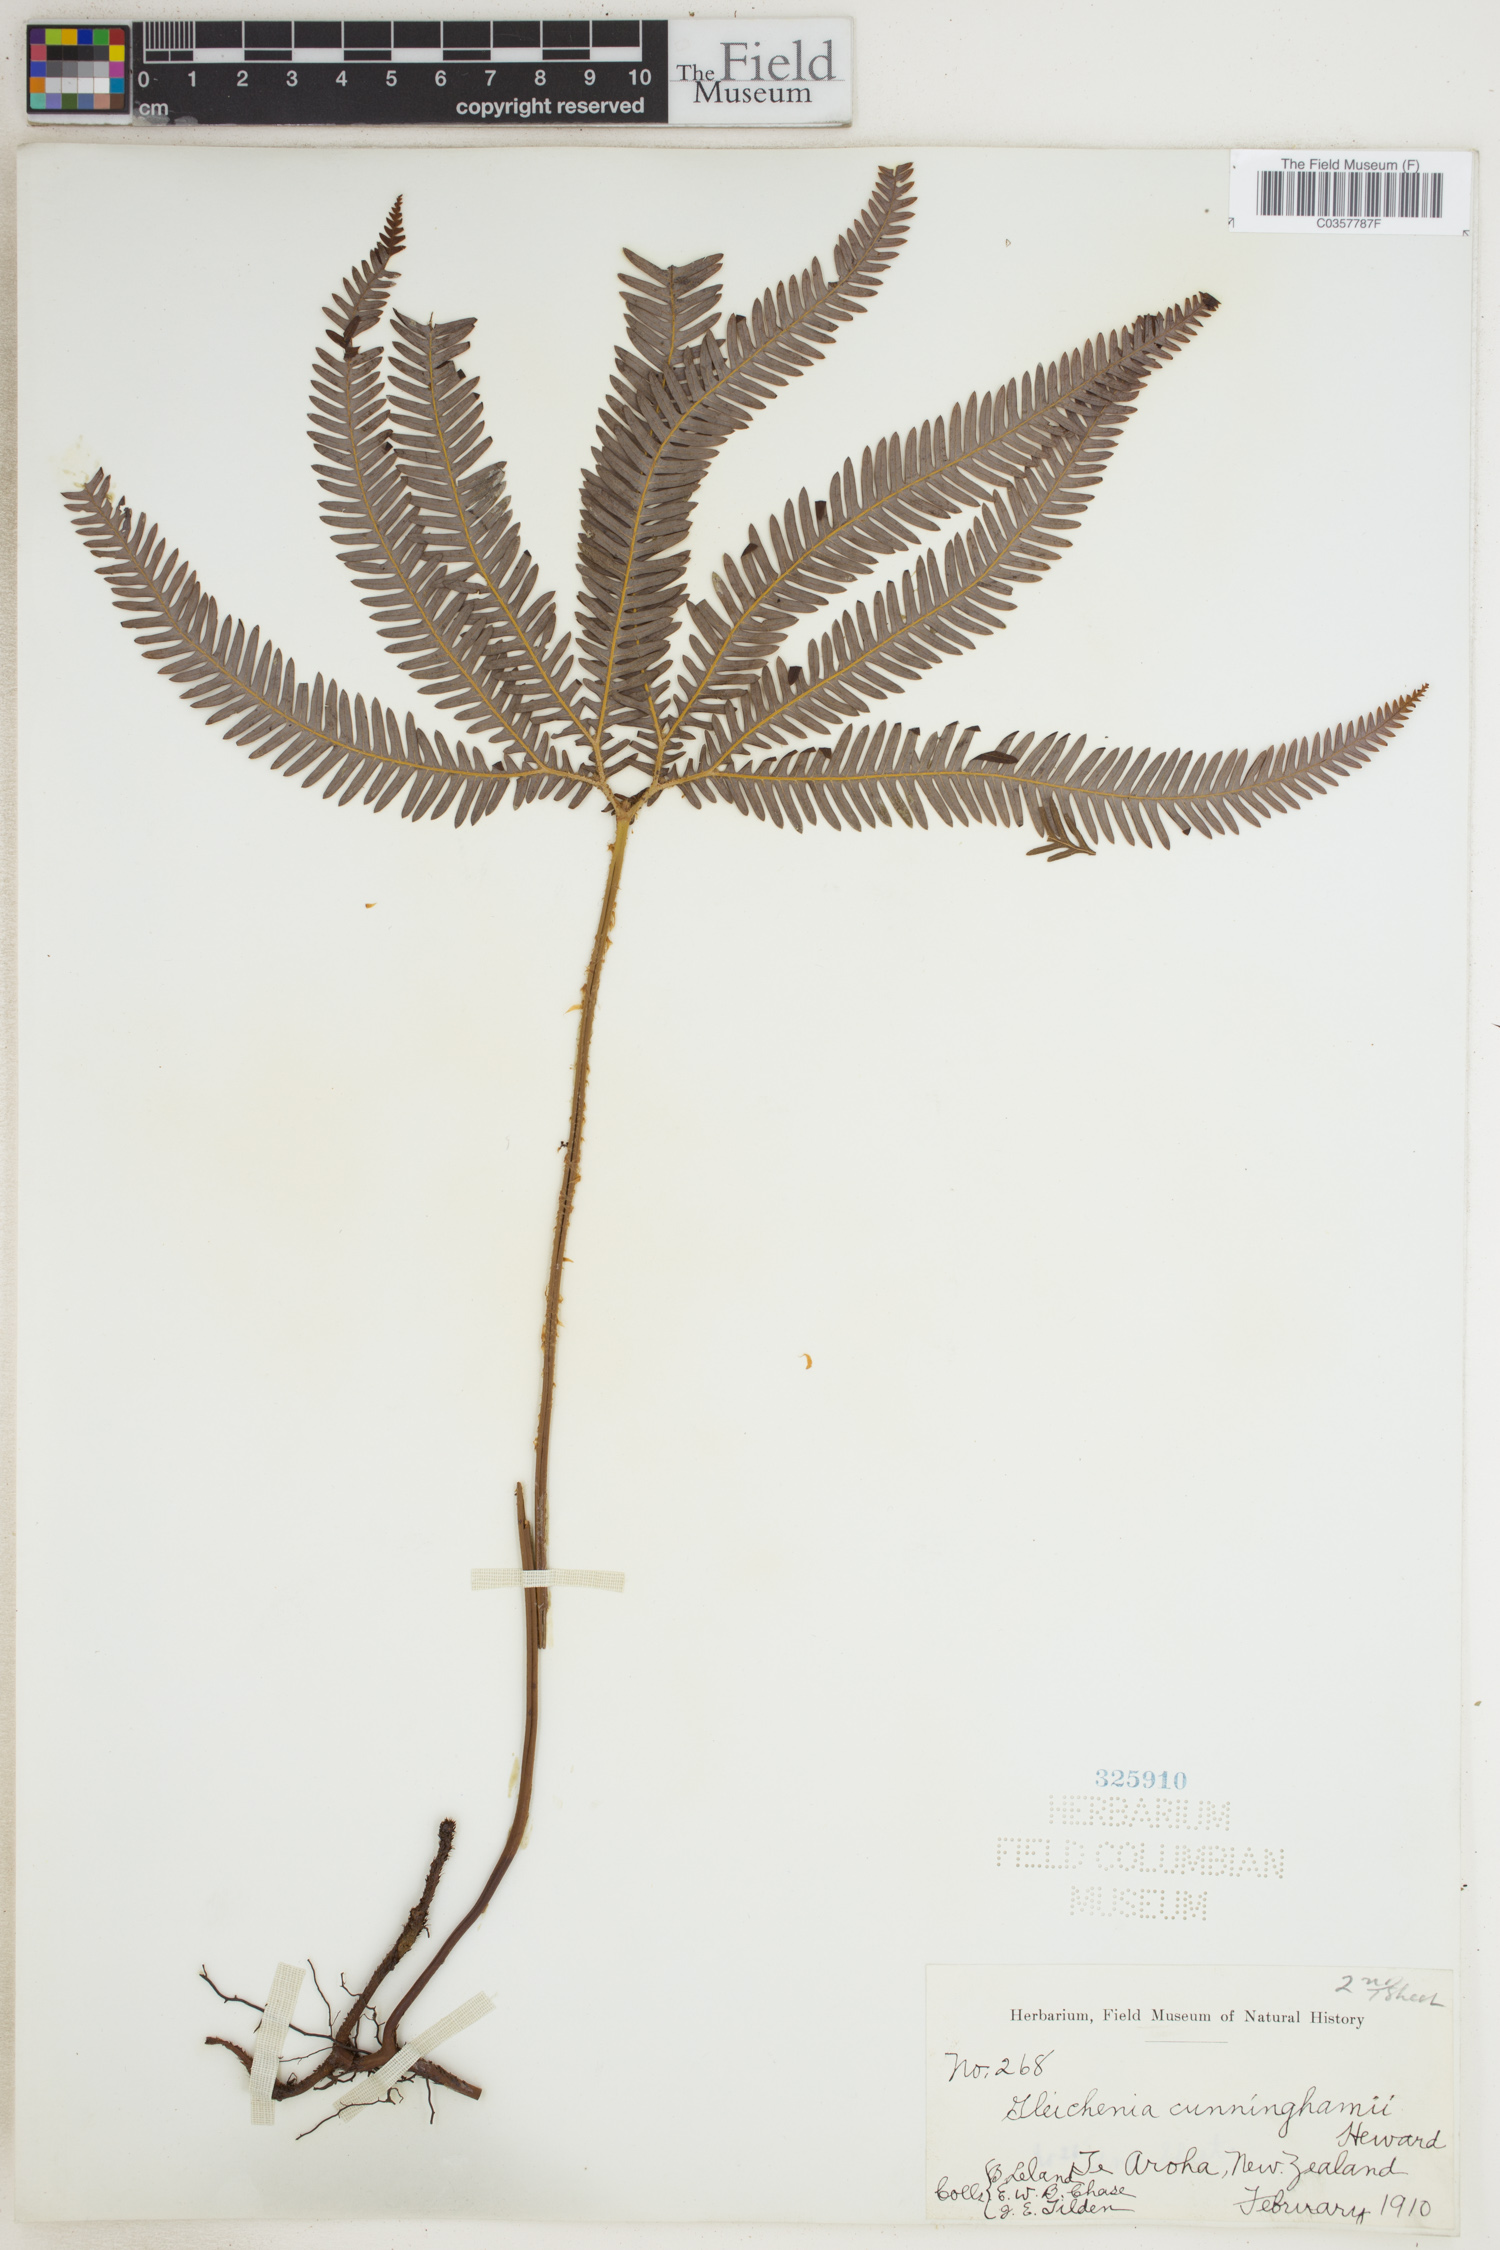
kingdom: Plantae
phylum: Tracheophyta
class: Polypodiopsida
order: Gleicheniales
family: Gleicheniaceae
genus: Sticherus
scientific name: Sticherus cunninghamii
